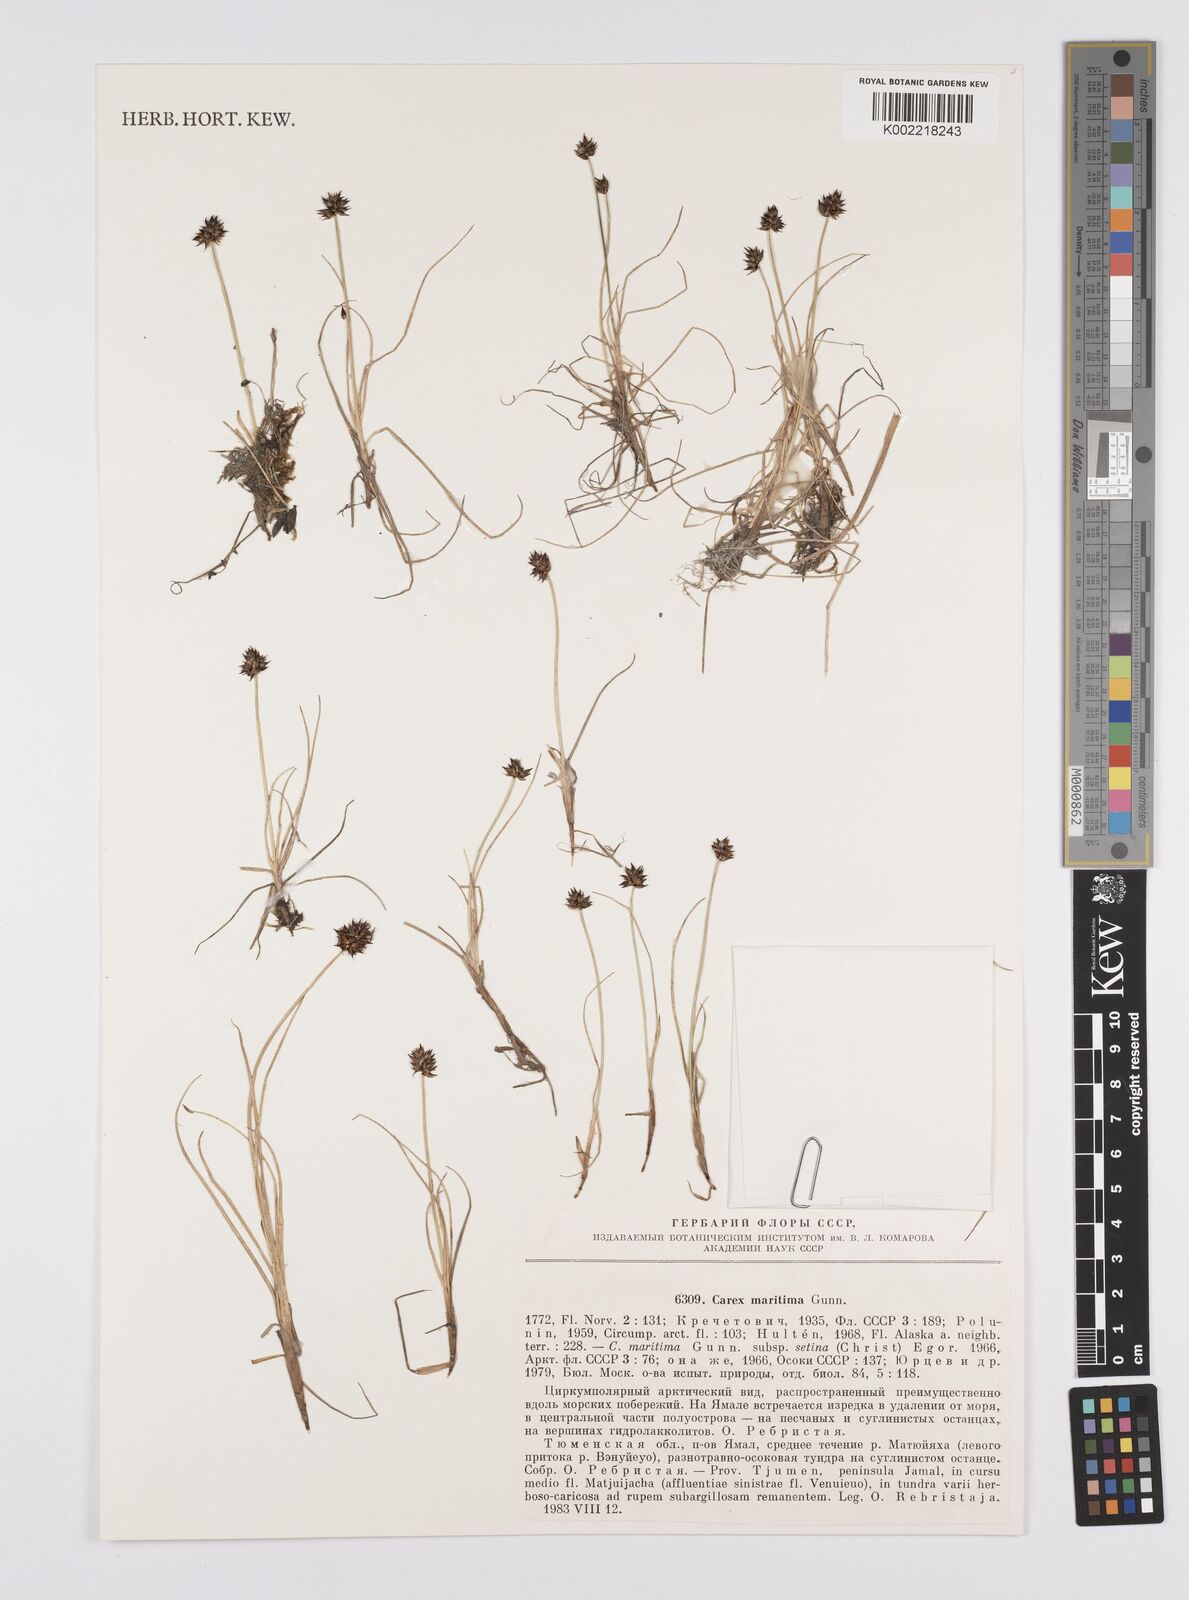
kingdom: Plantae
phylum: Tracheophyta
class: Liliopsida
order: Poales
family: Cyperaceae
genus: Carex
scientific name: Carex maritima
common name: Curved sedge
